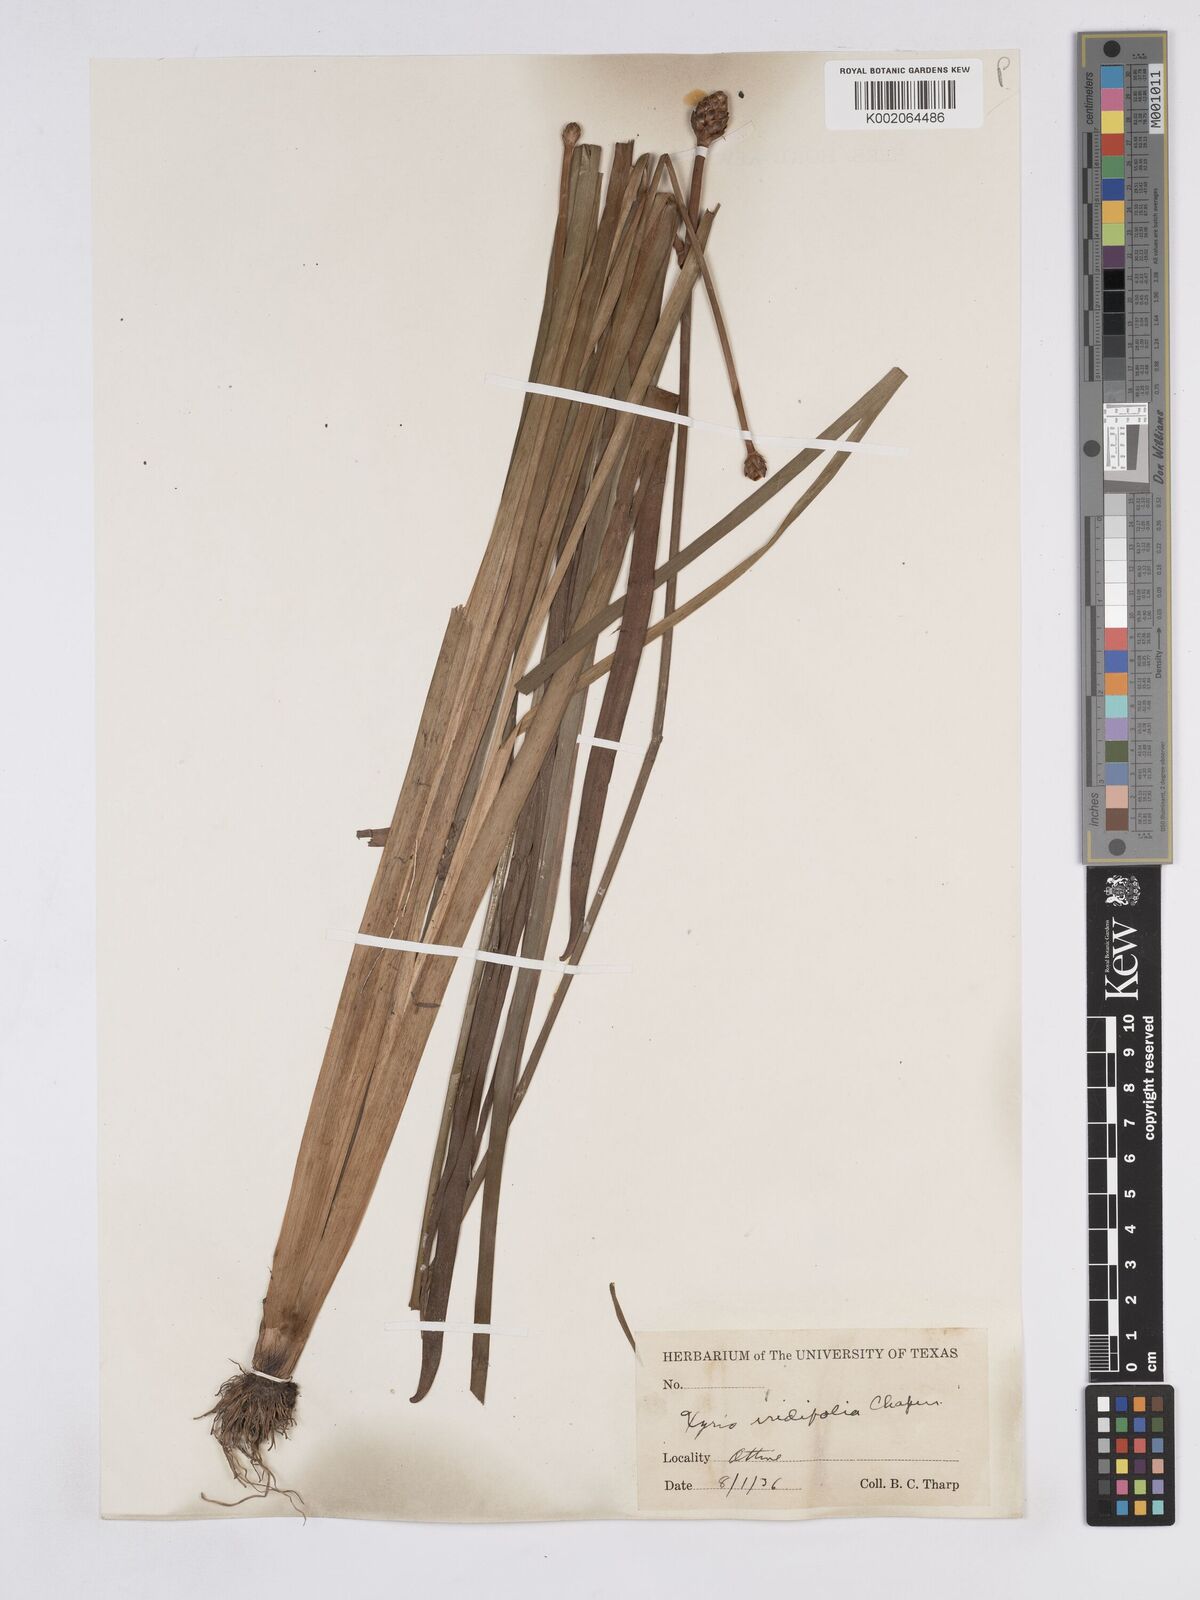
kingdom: Plantae
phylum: Tracheophyta
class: Liliopsida
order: Poales
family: Xyridaceae
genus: Xyris
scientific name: Xyris laxifolia
